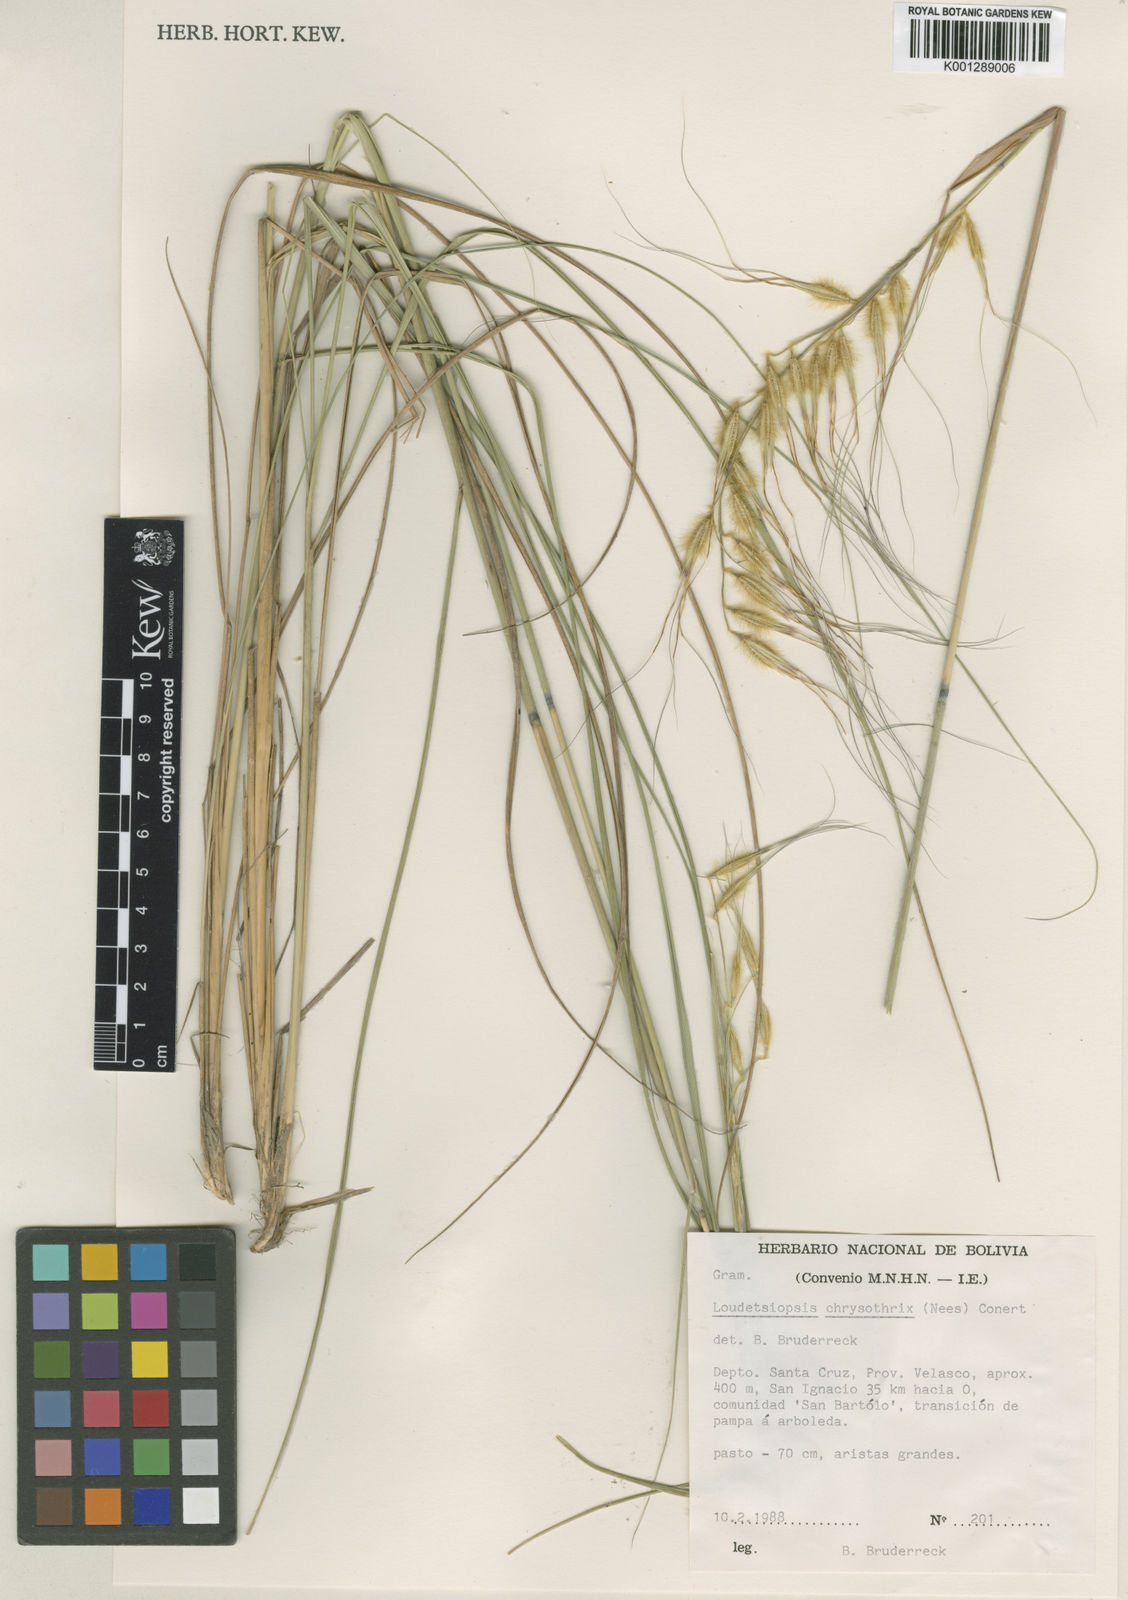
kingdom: Plantae
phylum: Tracheophyta
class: Liliopsida
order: Poales
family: Poaceae
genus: Loudetiopsis
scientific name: Loudetiopsis chrysothrix
